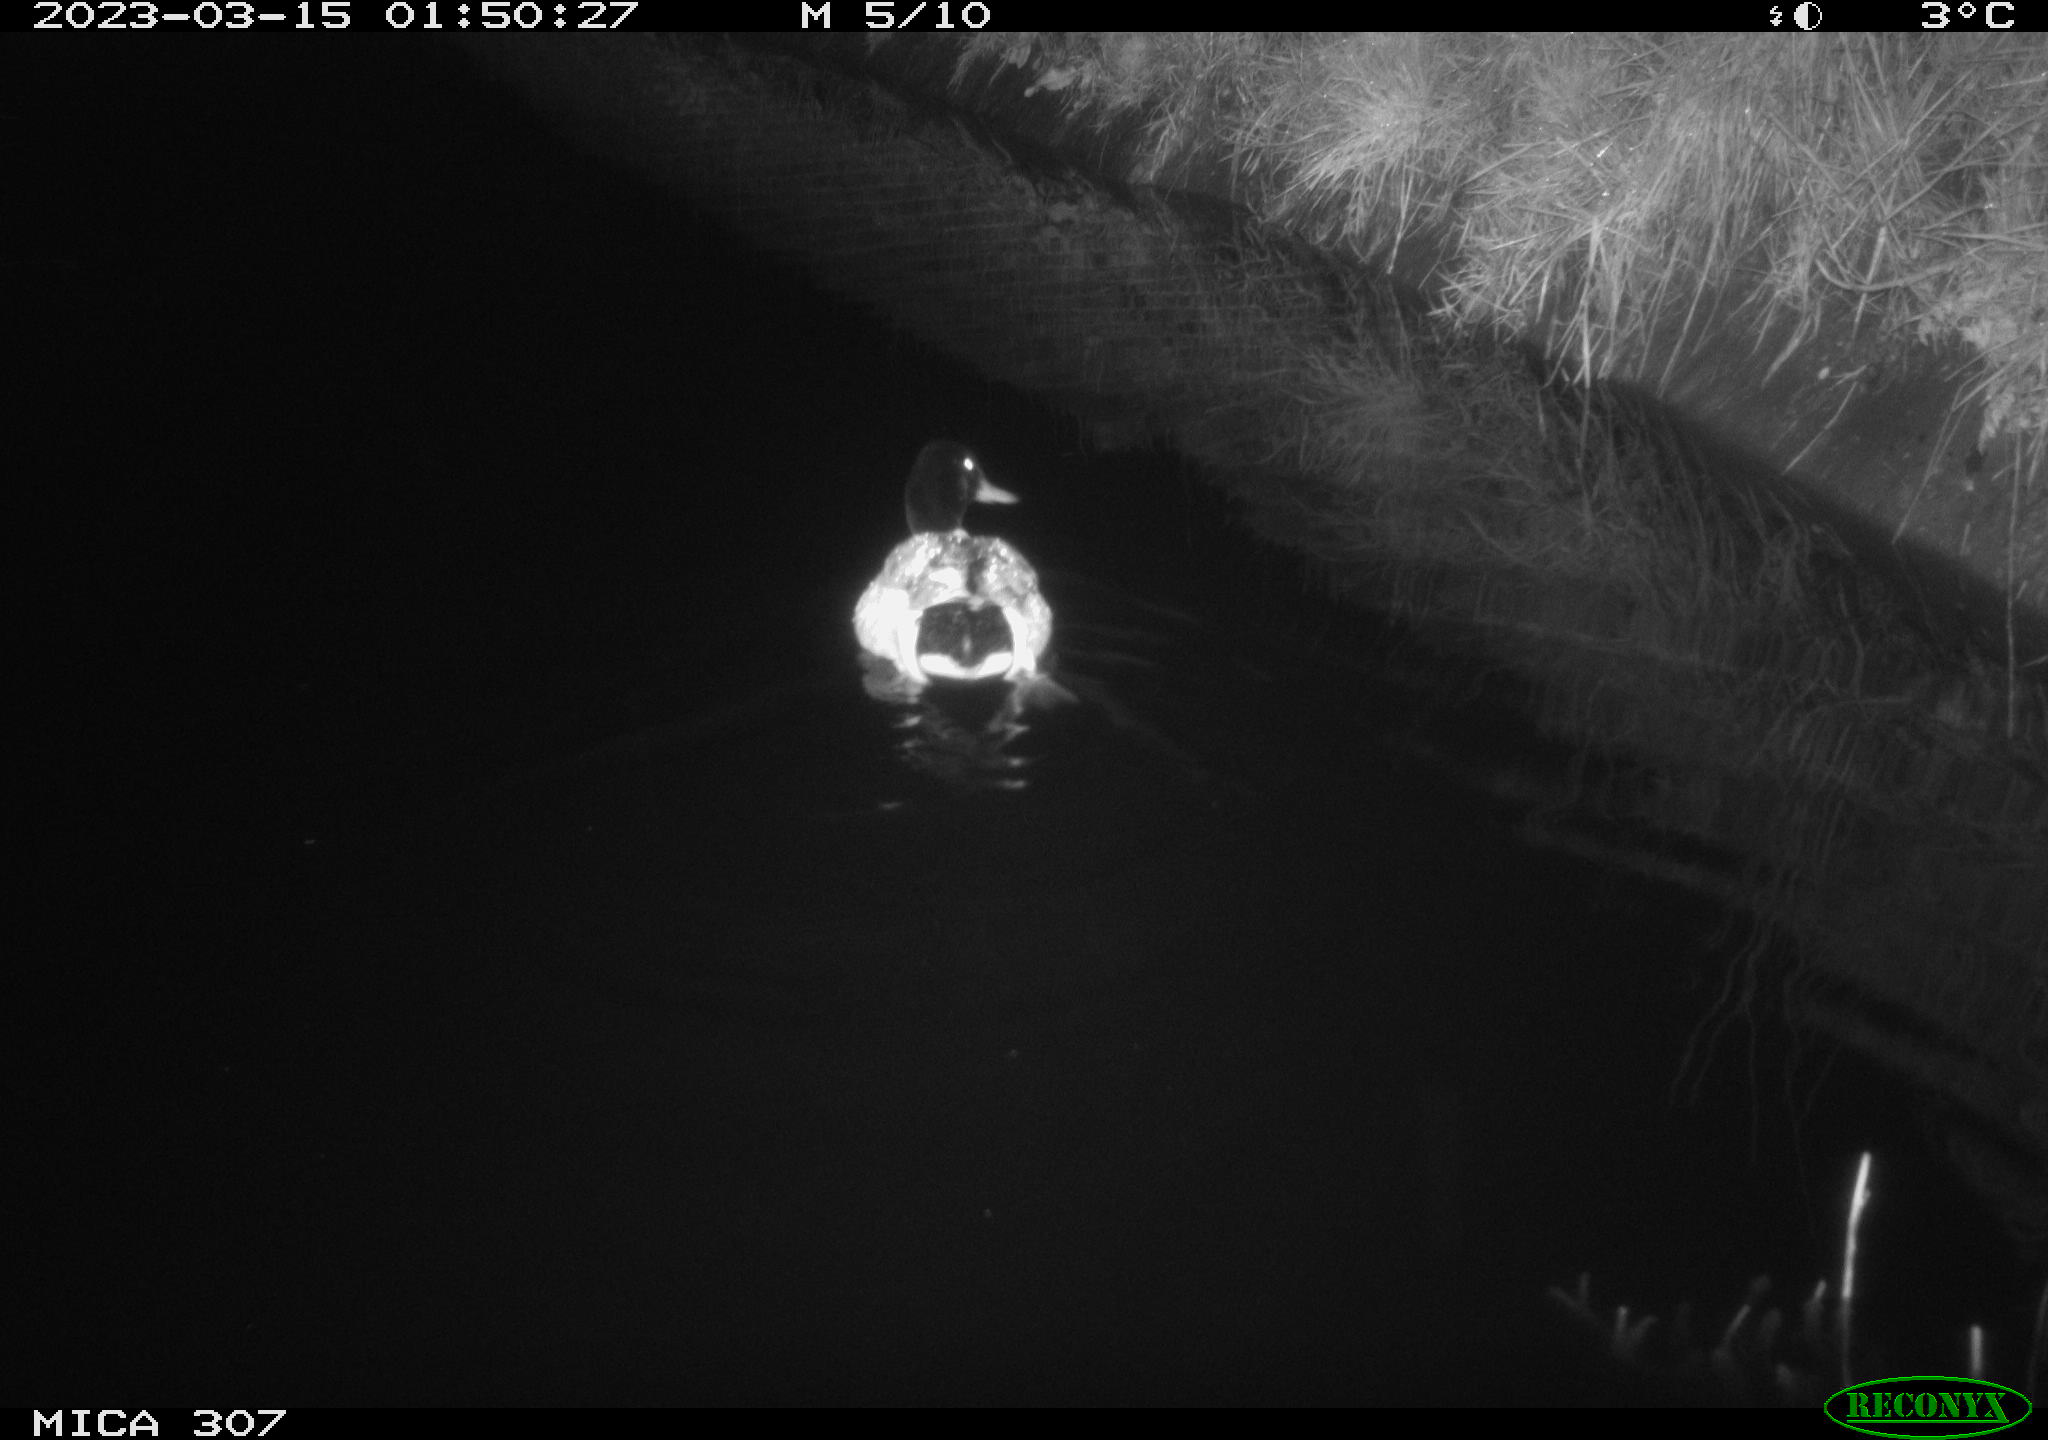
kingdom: Animalia
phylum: Chordata
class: Aves
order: Anseriformes
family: Anatidae
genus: Anas
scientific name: Anas
